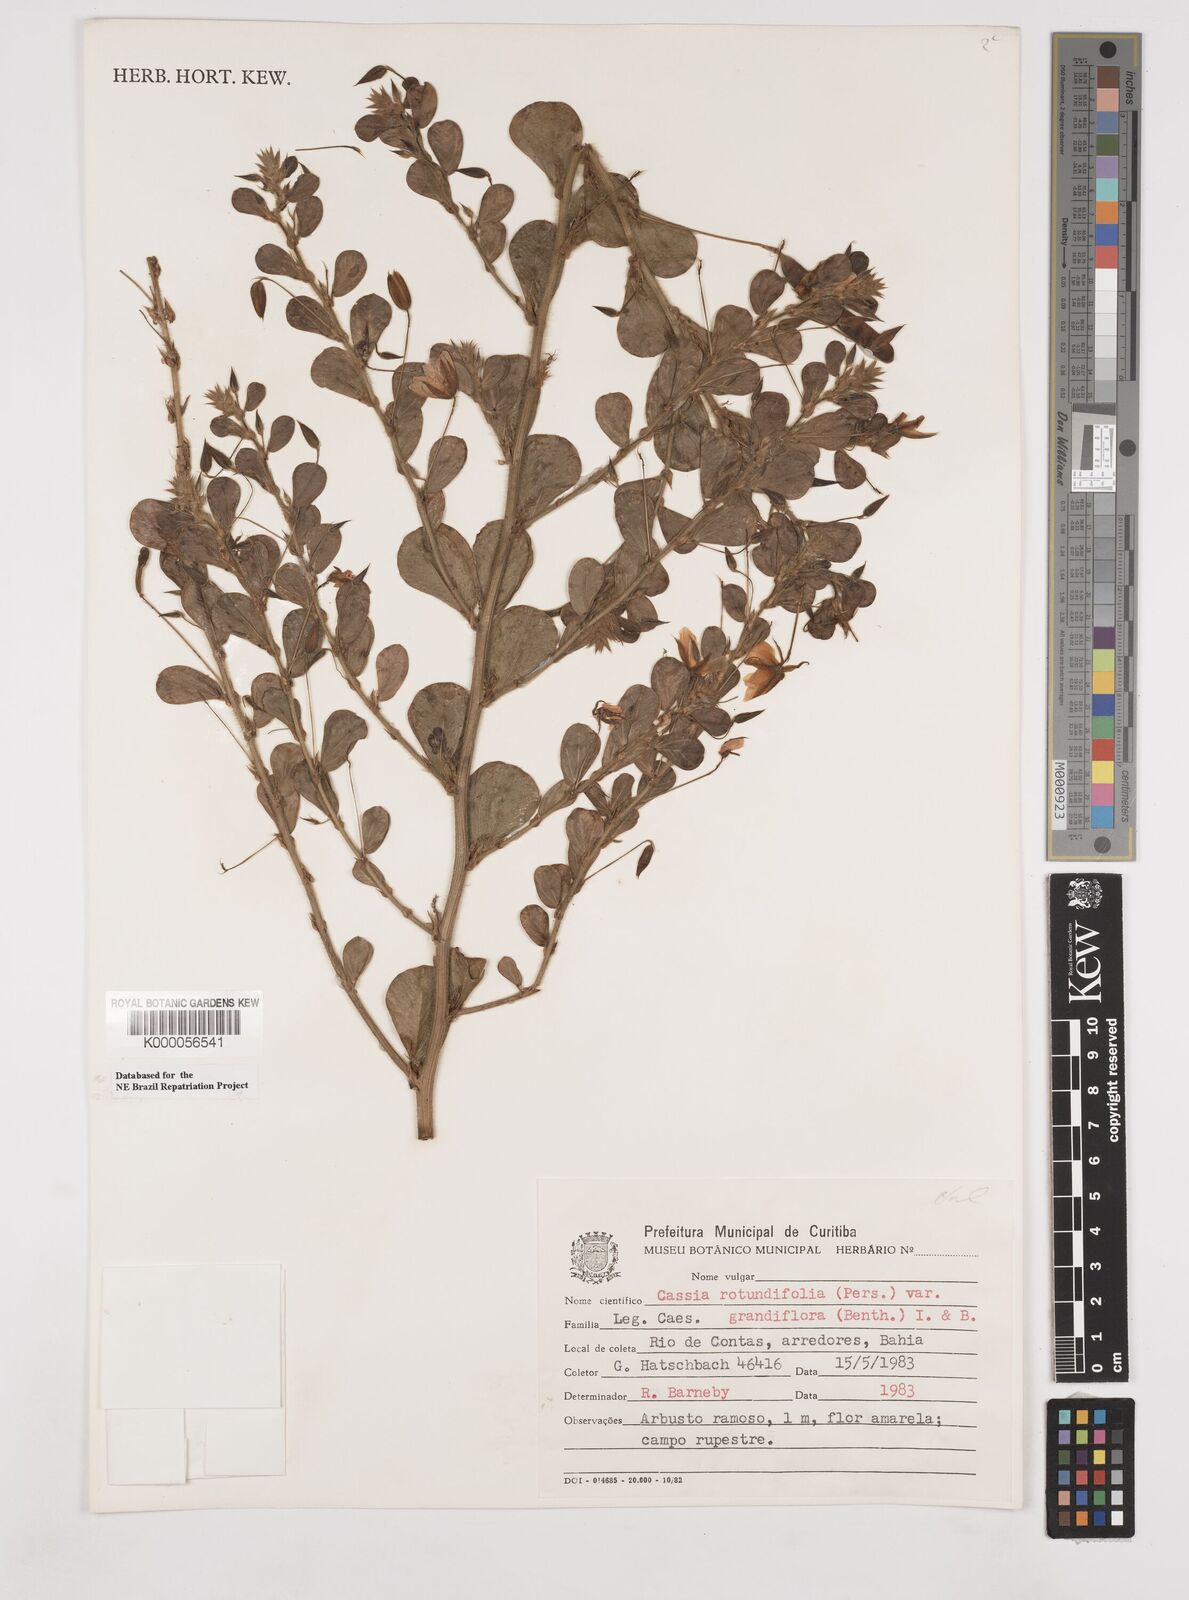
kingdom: Plantae
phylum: Tracheophyta
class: Magnoliopsida
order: Fabales
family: Fabaceae
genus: Chamaecrista
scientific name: Chamaecrista rotundifolia
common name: Round-leaf cassia
